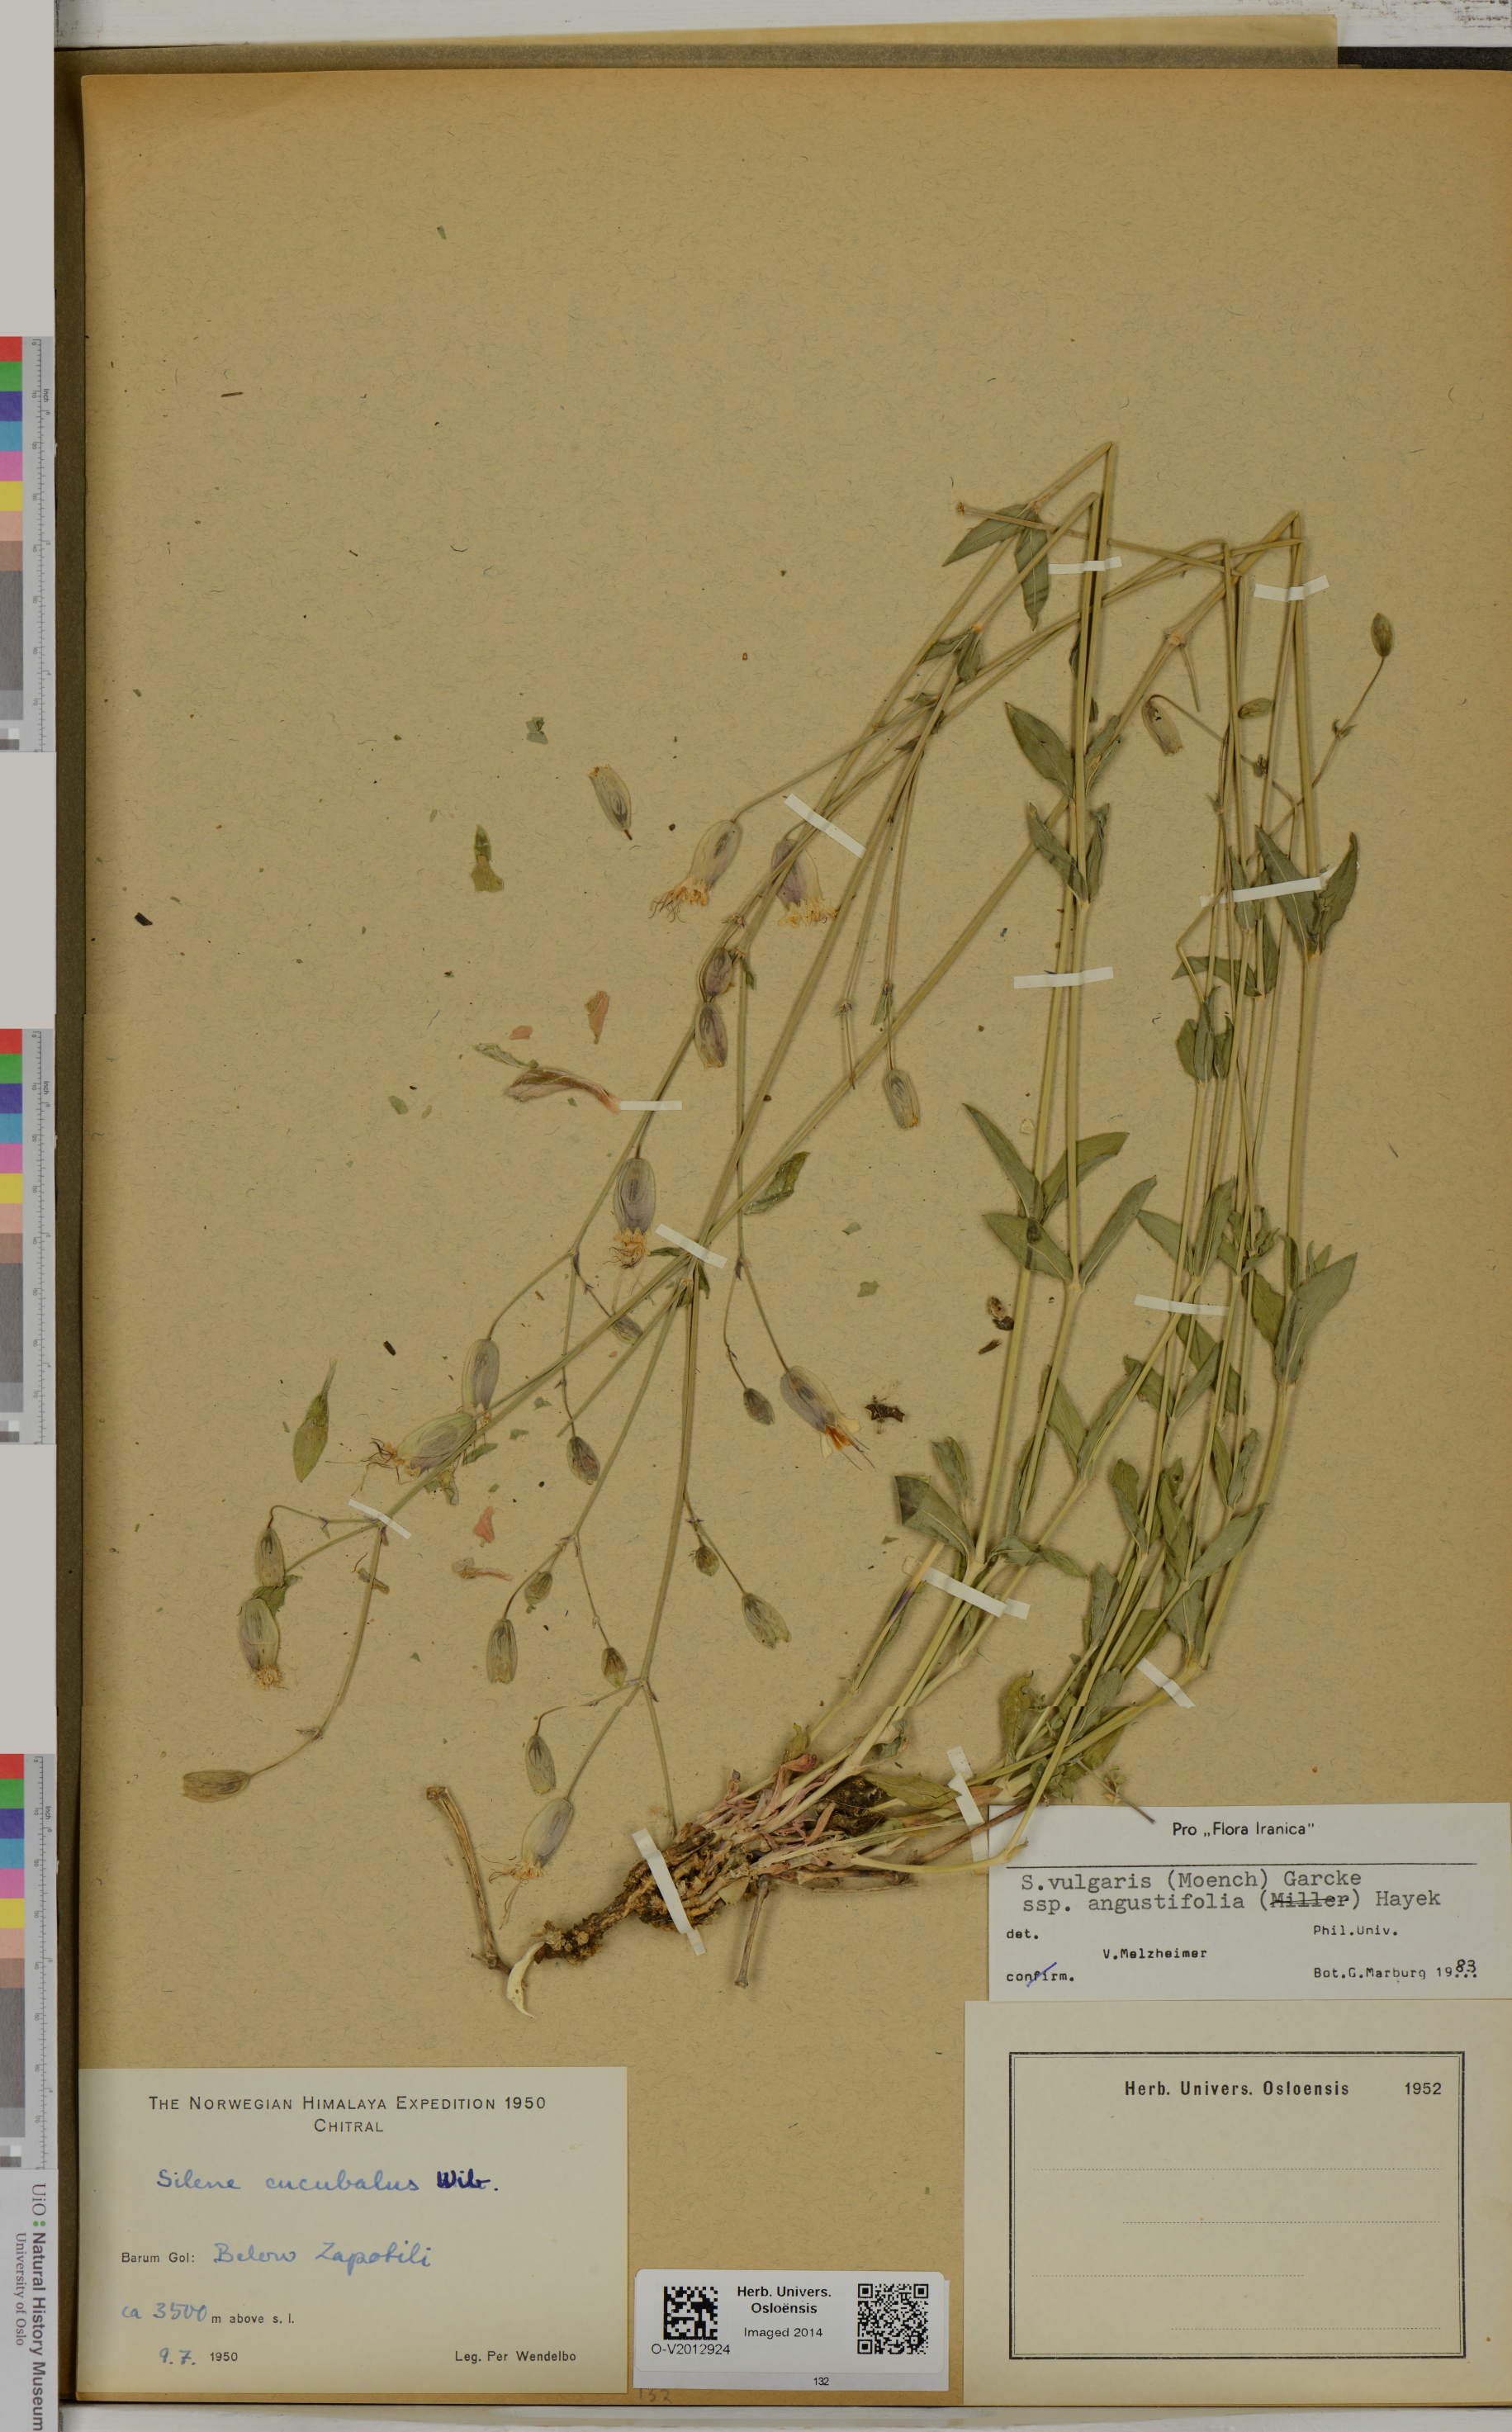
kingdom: Plantae
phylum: Tracheophyta
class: Magnoliopsida
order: Caryophyllales
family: Caryophyllaceae
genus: Silene
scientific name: Silene vulgaris
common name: Bladder campion
